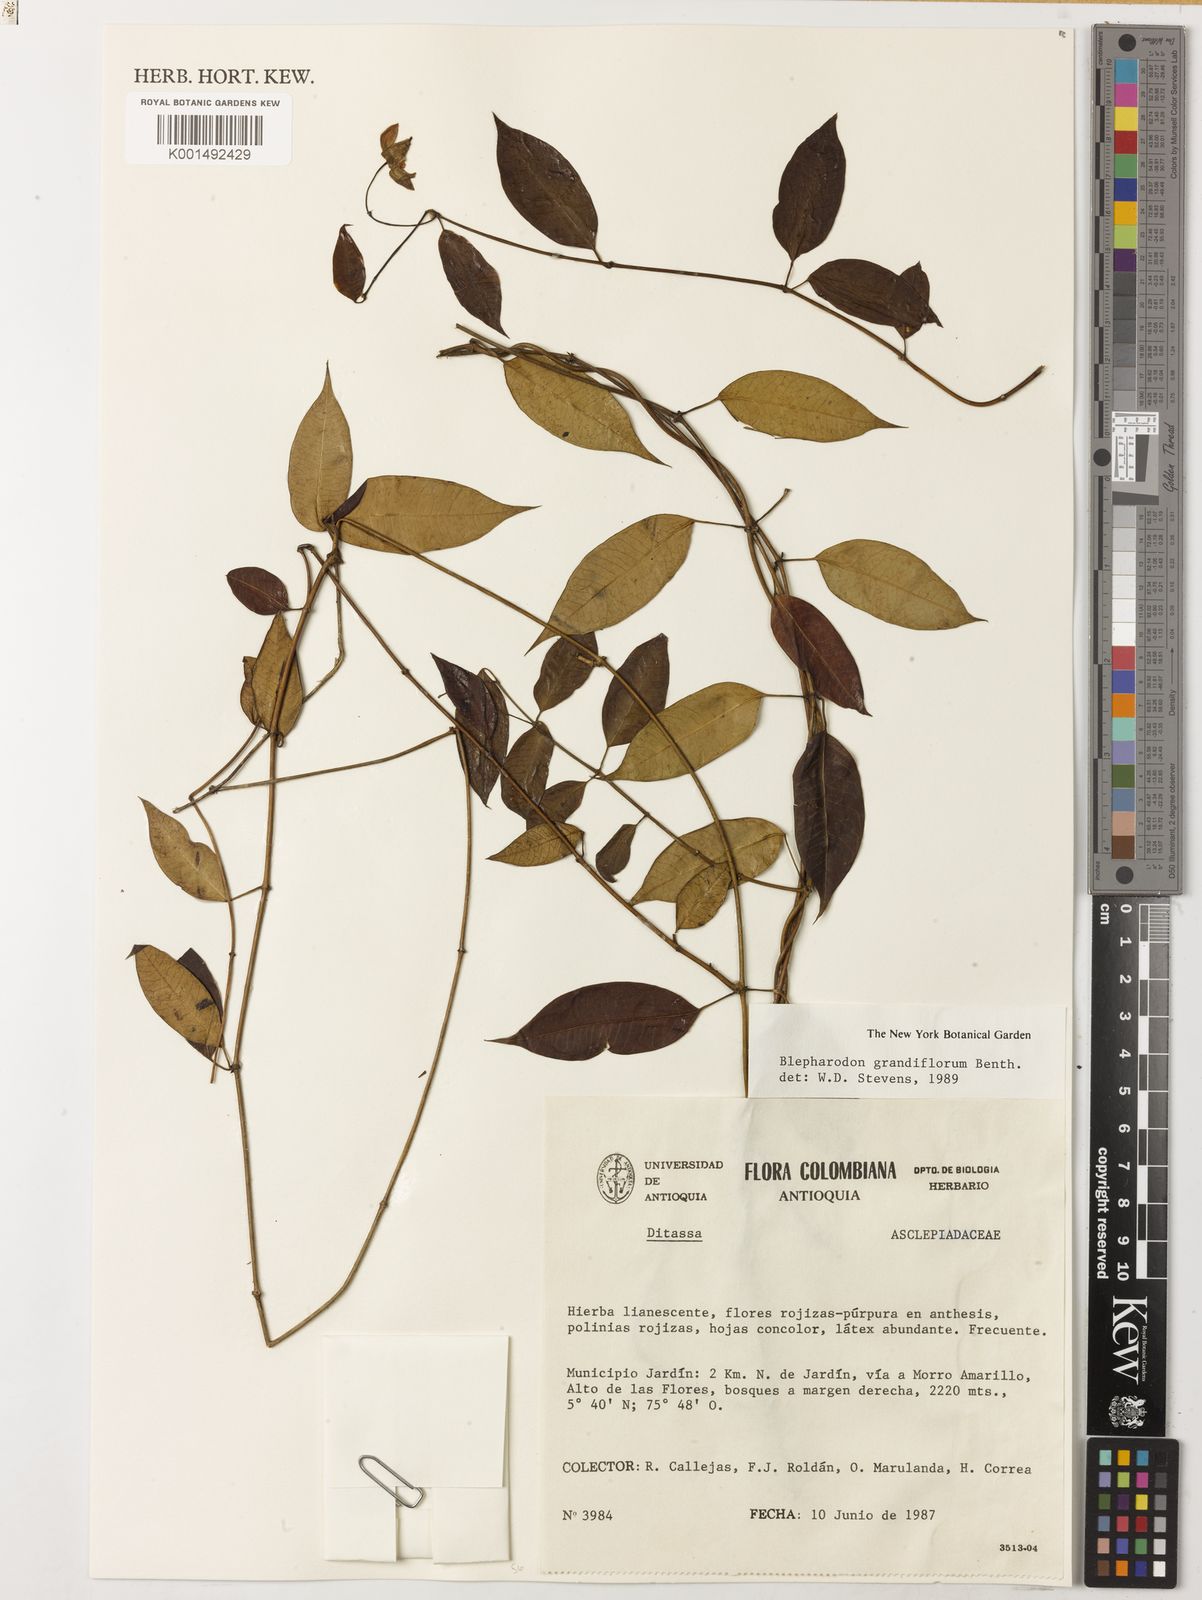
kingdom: Plantae
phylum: Tracheophyta
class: Magnoliopsida
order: Gentianales
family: Apocynaceae
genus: Blepharodon
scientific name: Blepharodon grandiflorum
